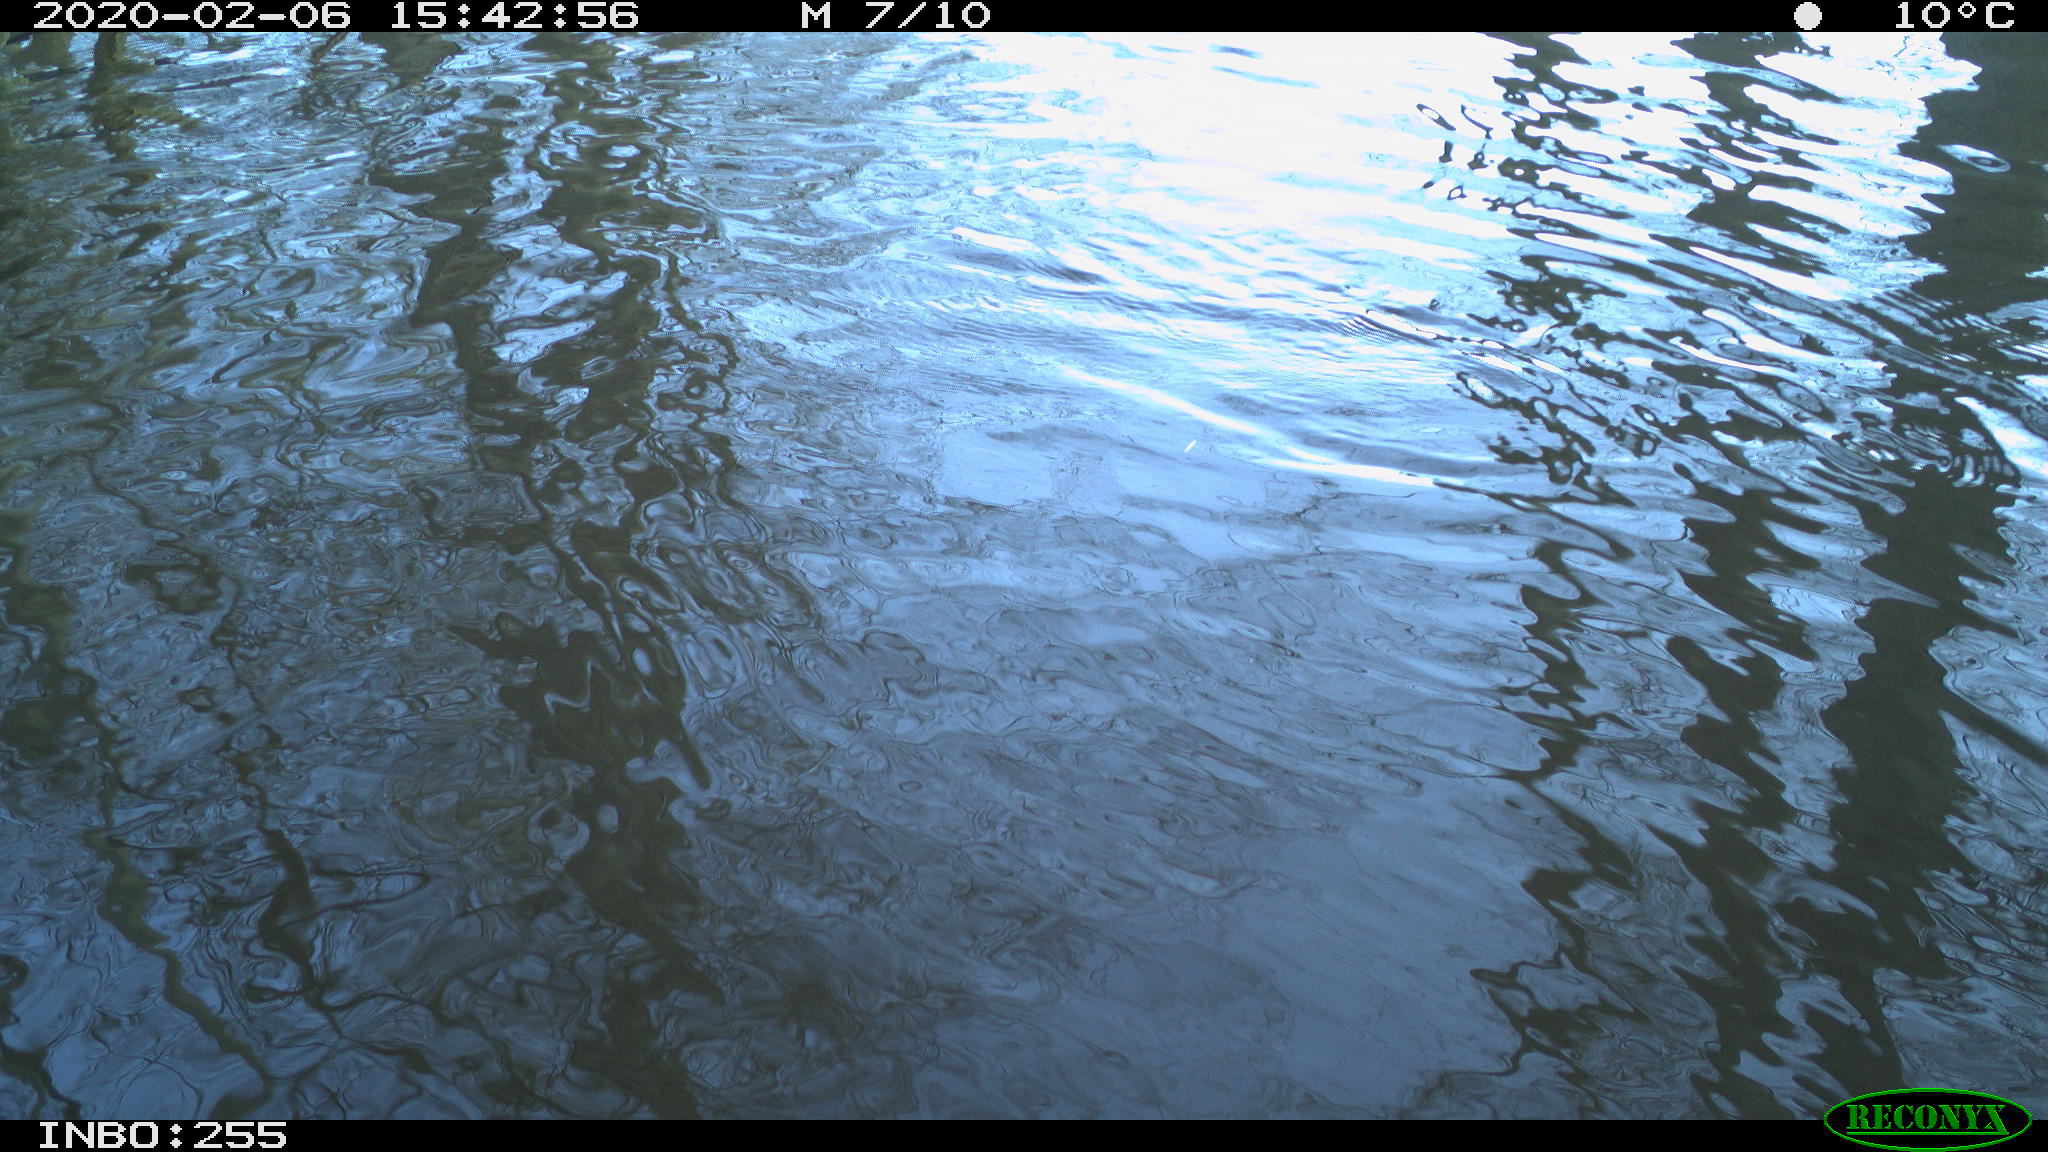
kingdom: Animalia
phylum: Chordata
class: Aves
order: Gruiformes
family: Rallidae
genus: Fulica
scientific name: Fulica atra
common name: Eurasian coot
